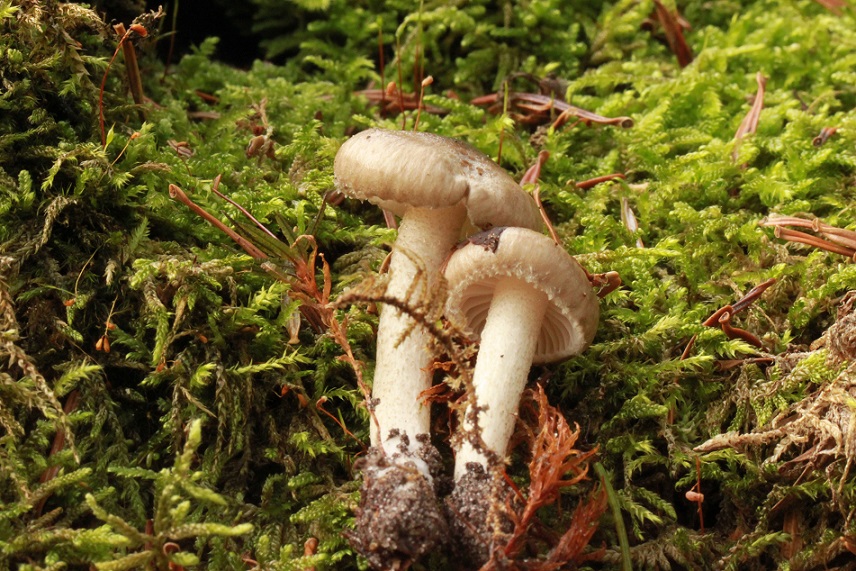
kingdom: Fungi
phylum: Basidiomycota
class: Agaricomycetes
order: Agaricales
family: Hygrophoraceae
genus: Hygrophorus
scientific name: Hygrophorus pustulatus
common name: mørkprikket sneglehat
